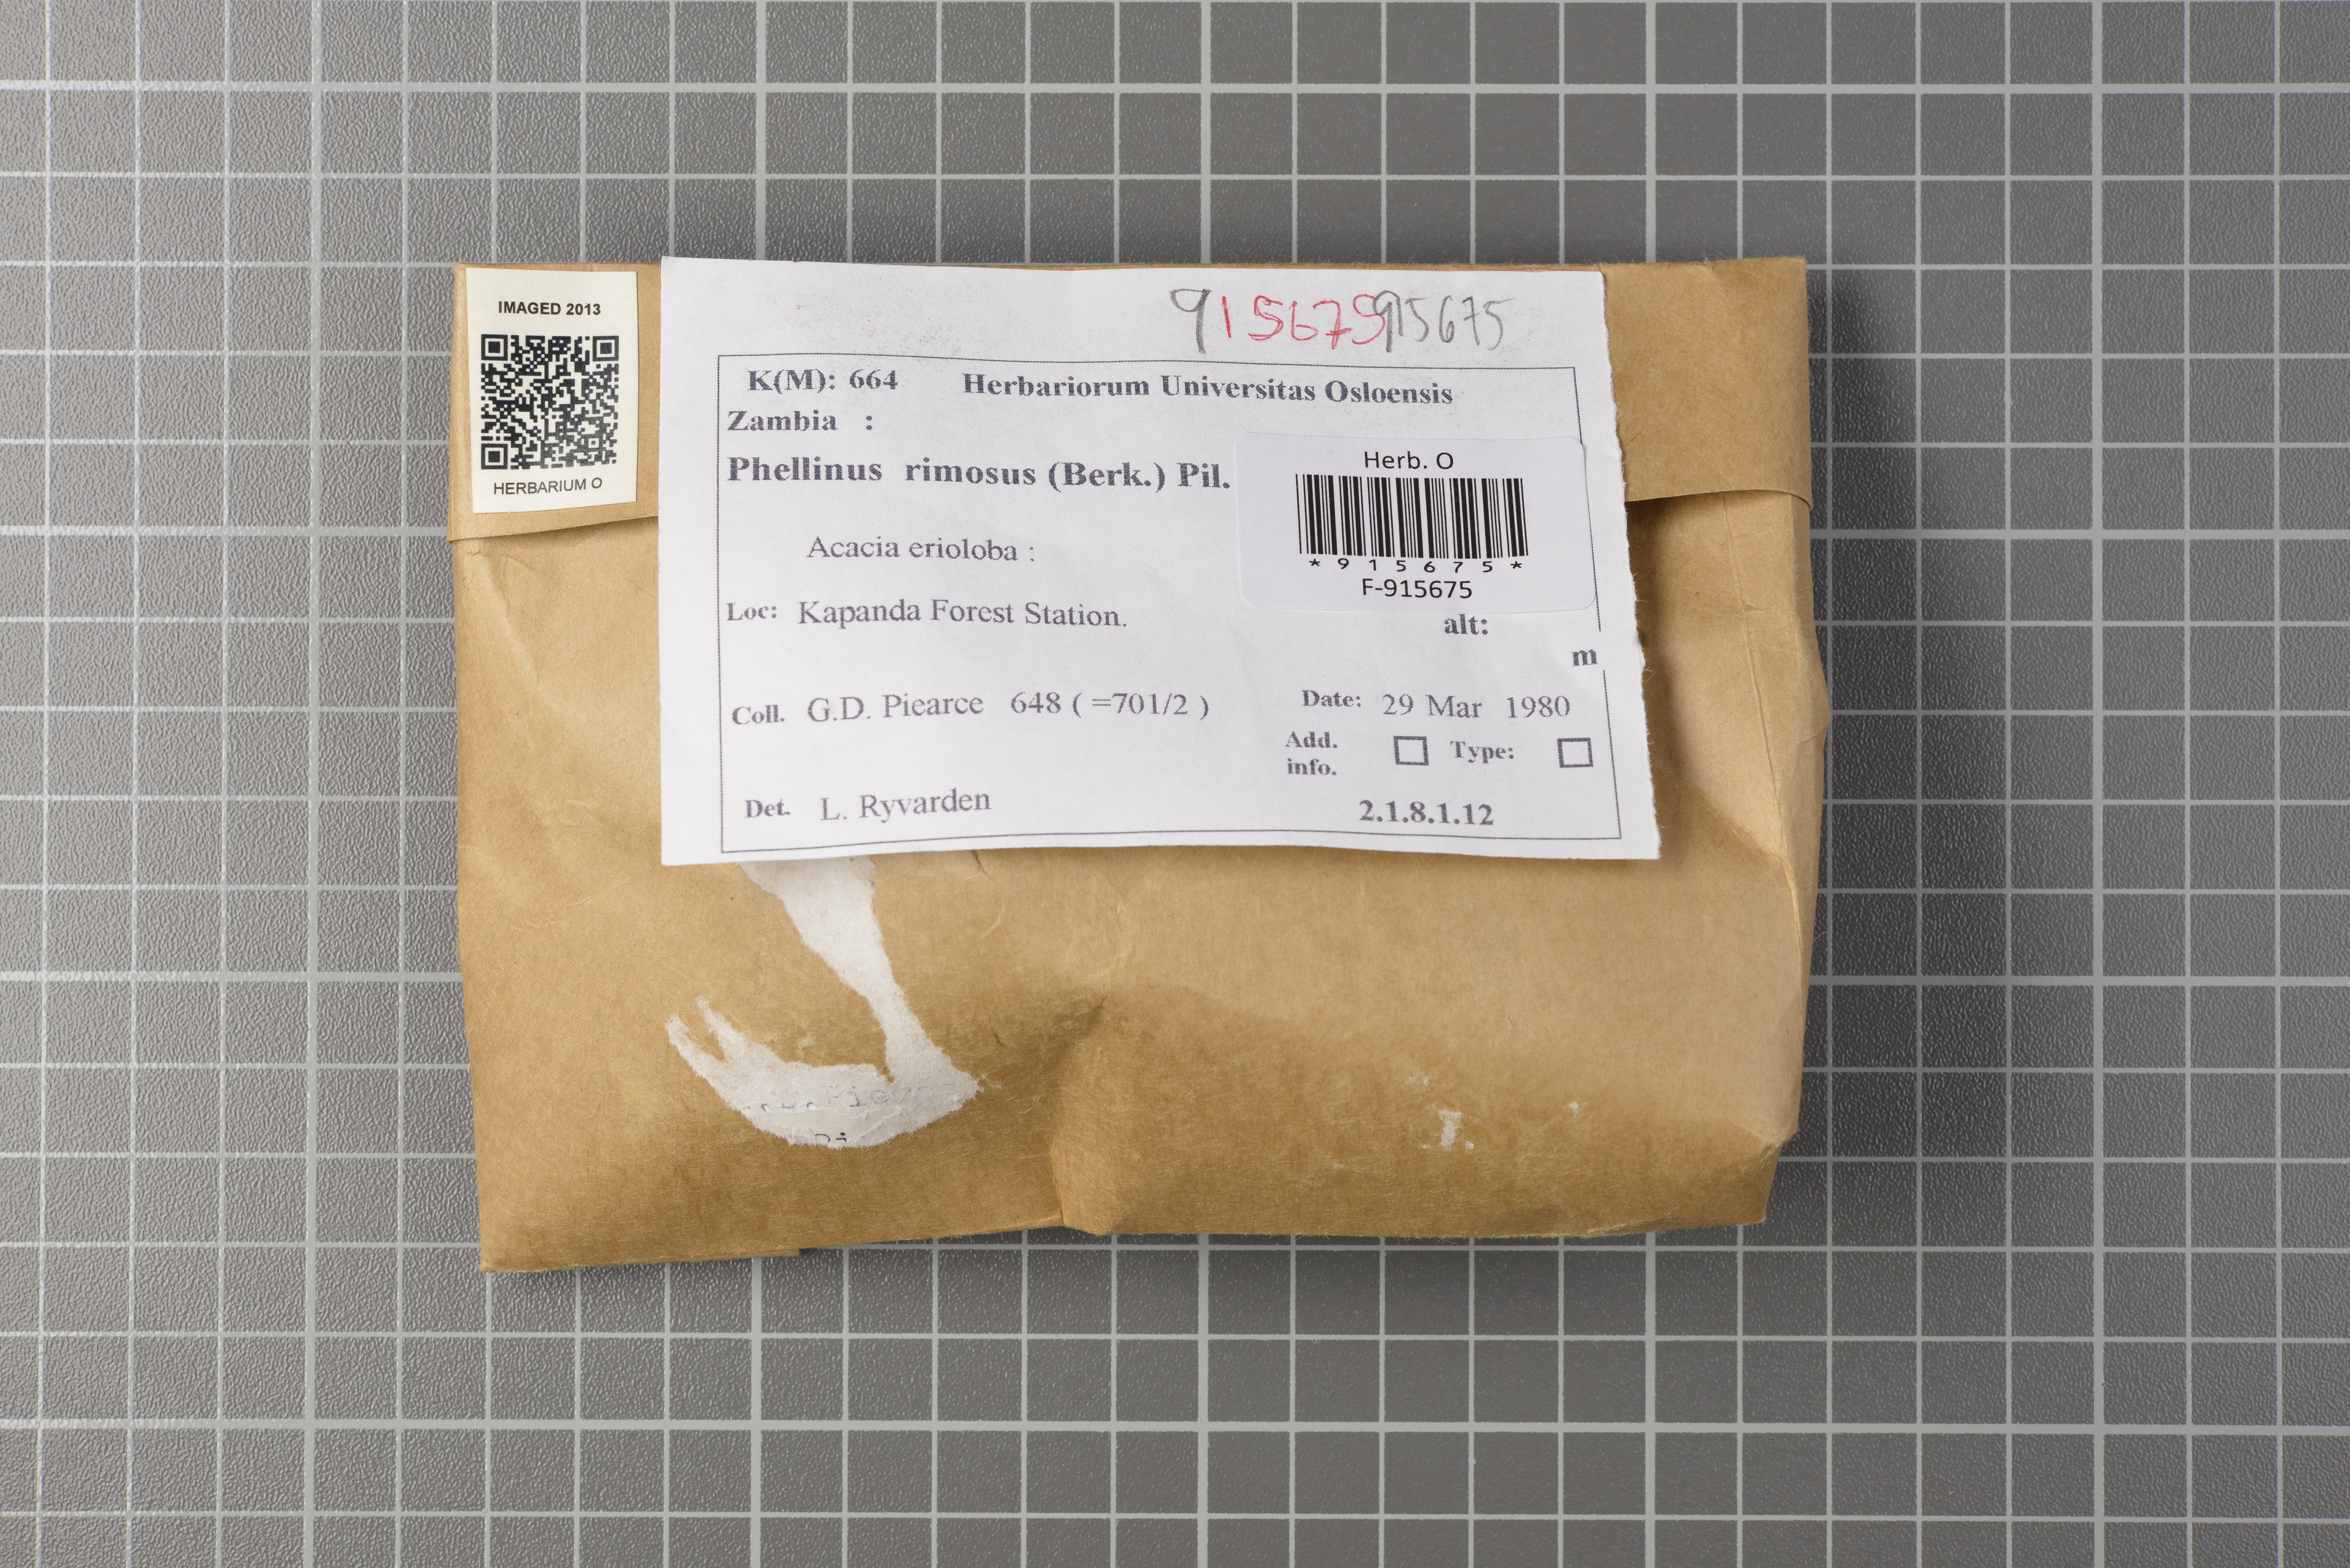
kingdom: Fungi
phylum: Basidiomycota
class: Agaricomycetes
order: Hymenochaetales
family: Hymenochaetaceae
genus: Phellinus
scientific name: Phellinus rimosus
